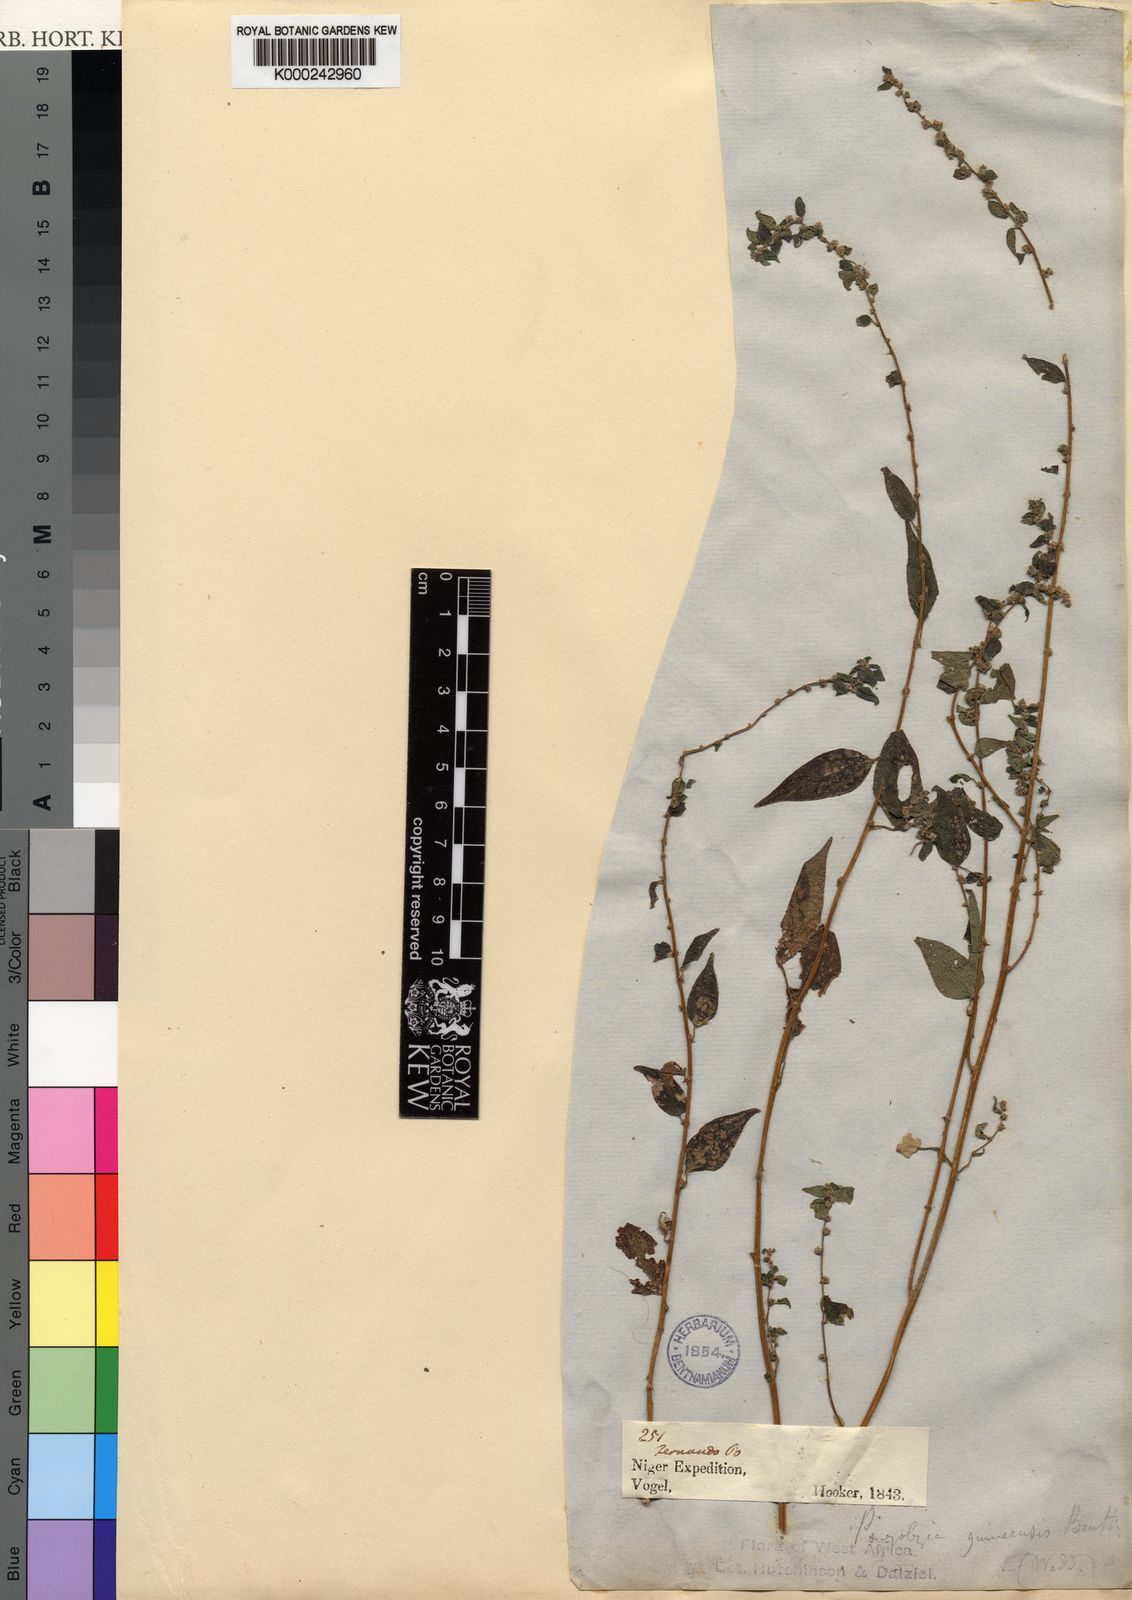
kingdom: Plantae
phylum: Tracheophyta
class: Magnoliopsida
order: Rosales
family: Urticaceae
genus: Pouzolzia
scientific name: Pouzolzia guineensis
